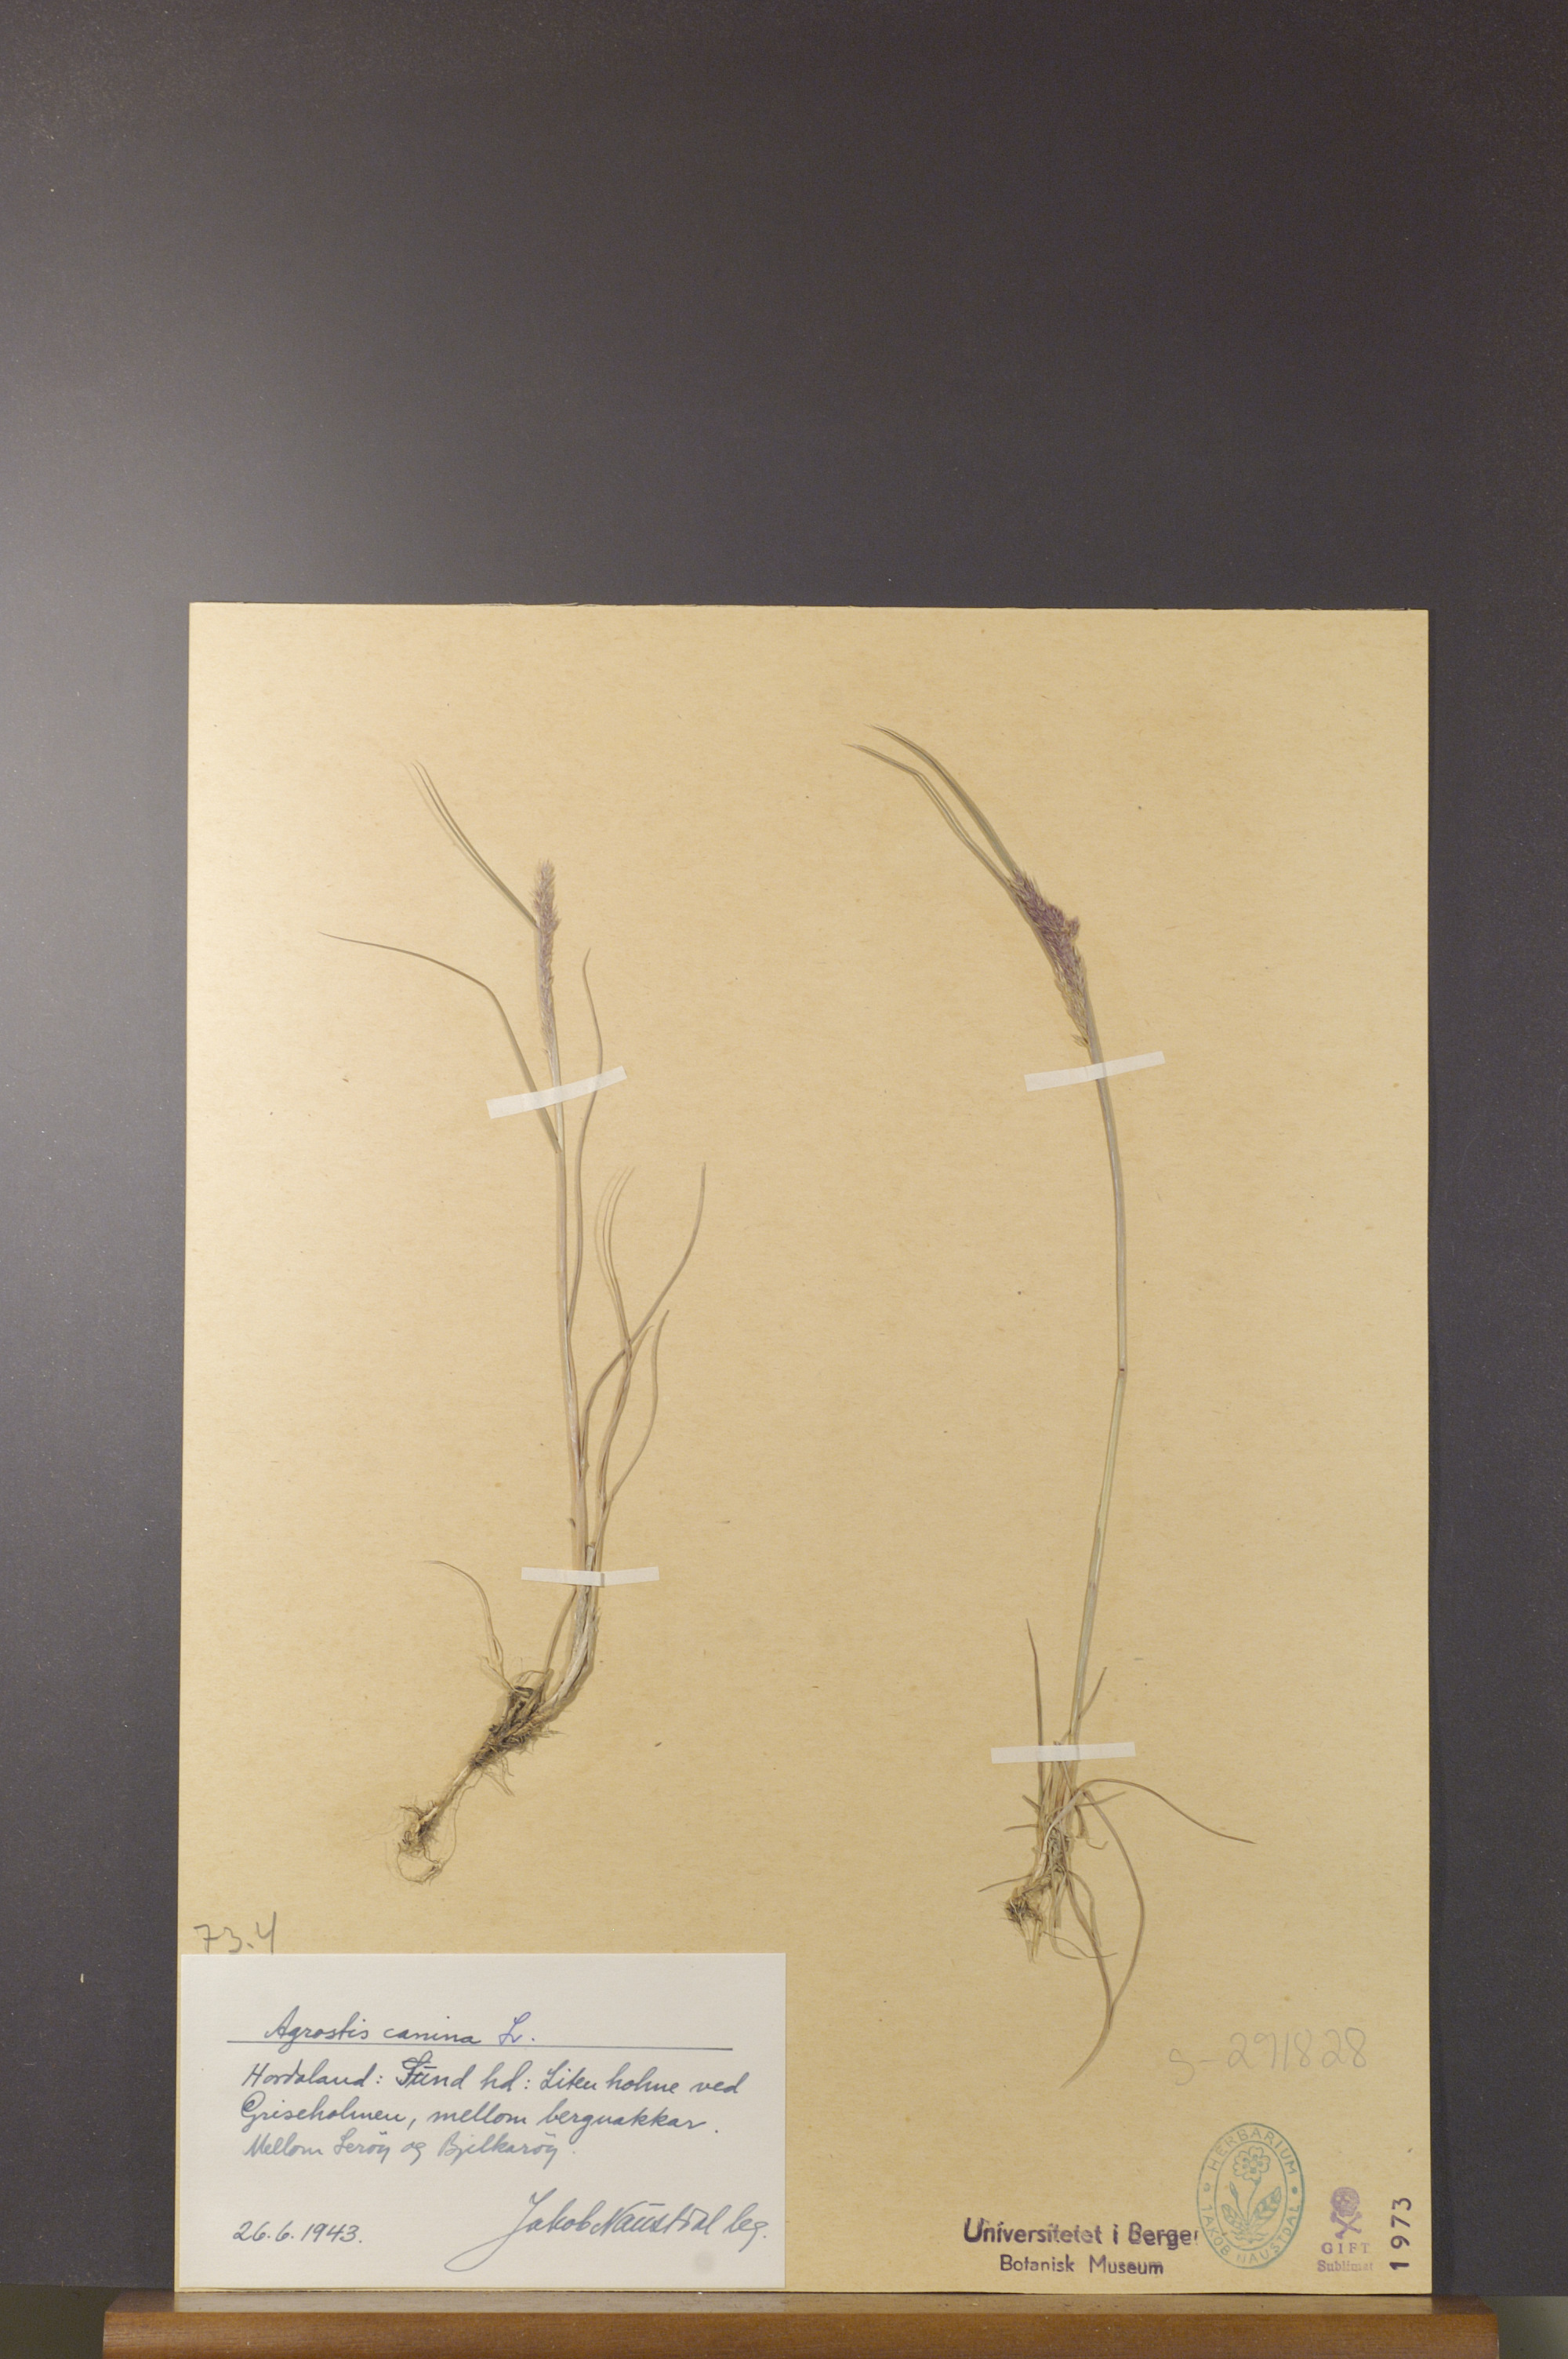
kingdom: Plantae
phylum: Tracheophyta
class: Liliopsida
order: Poales
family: Poaceae
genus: Agrostis
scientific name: Agrostis canina
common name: Velvet bent
